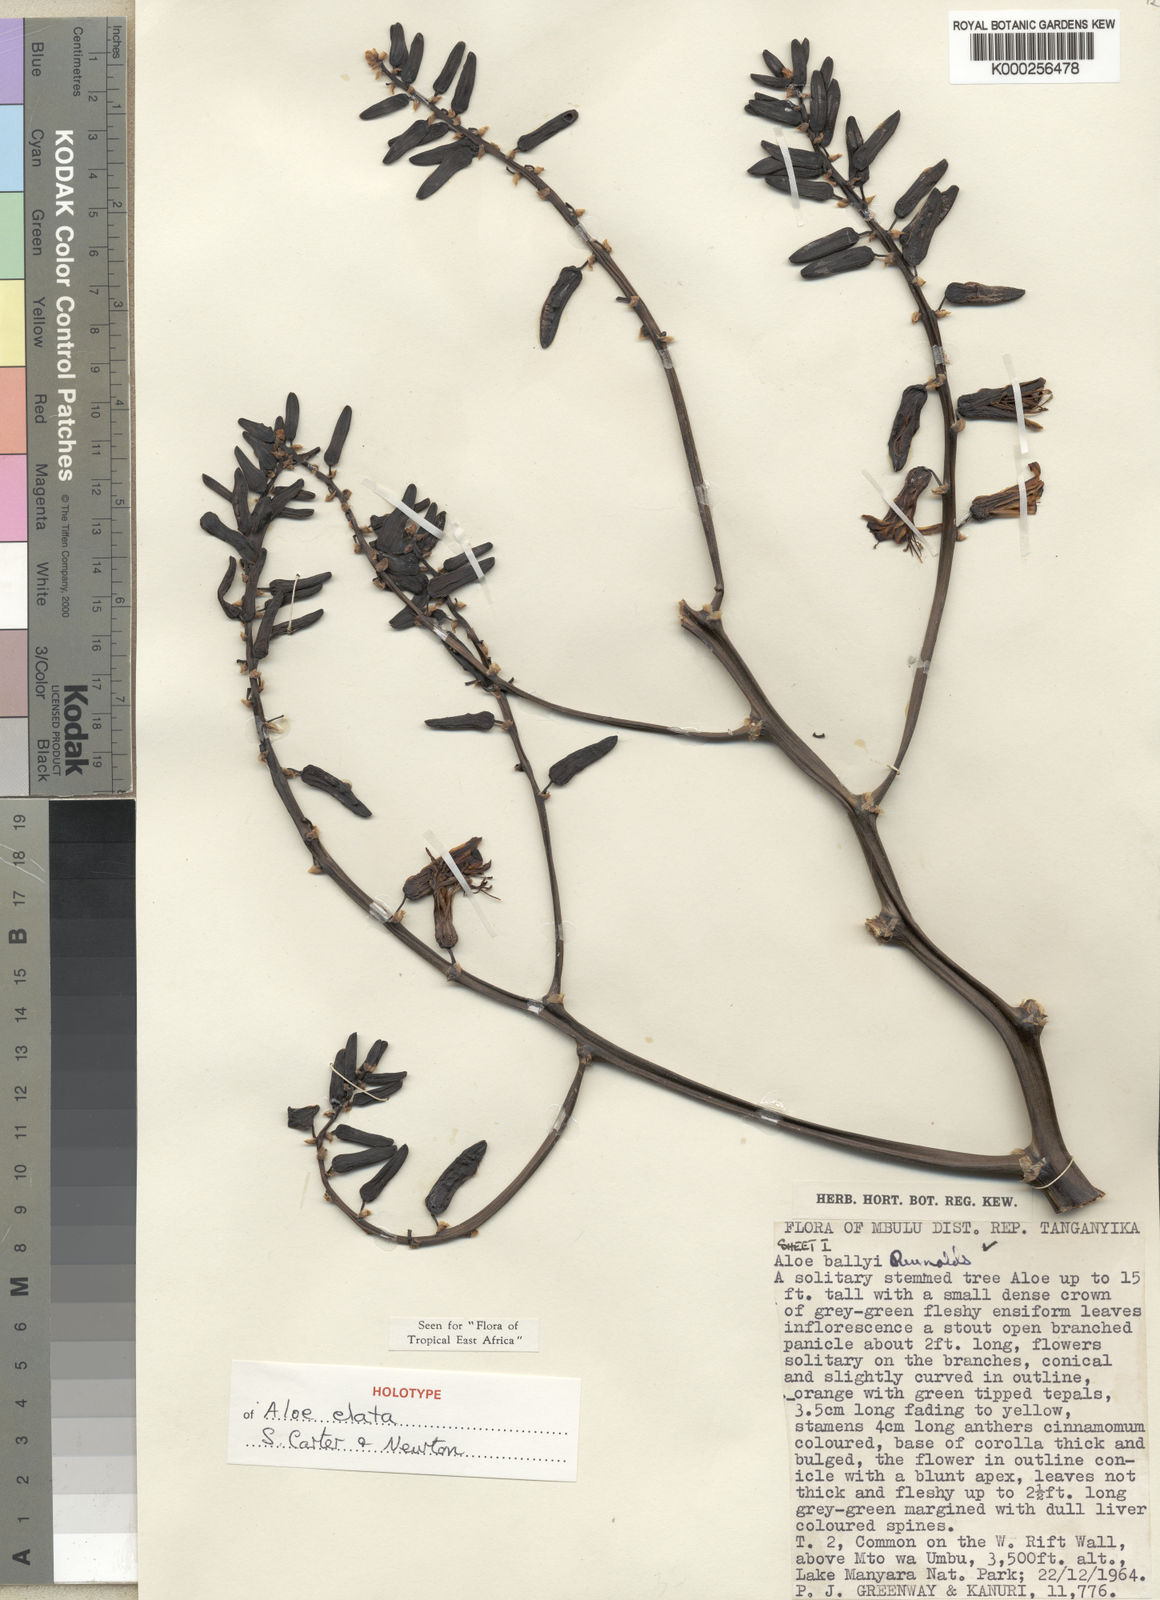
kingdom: Plantae
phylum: Tracheophyta
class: Liliopsida
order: Asparagales
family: Asphodelaceae
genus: Aloe
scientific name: Aloe elata
